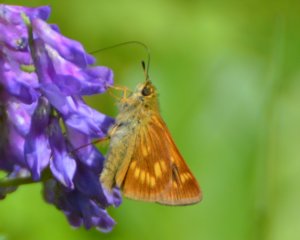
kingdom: Animalia
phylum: Arthropoda
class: Insecta
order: Lepidoptera
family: Hesperiidae
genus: Polites
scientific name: Polites
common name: Long Dash Skipper
